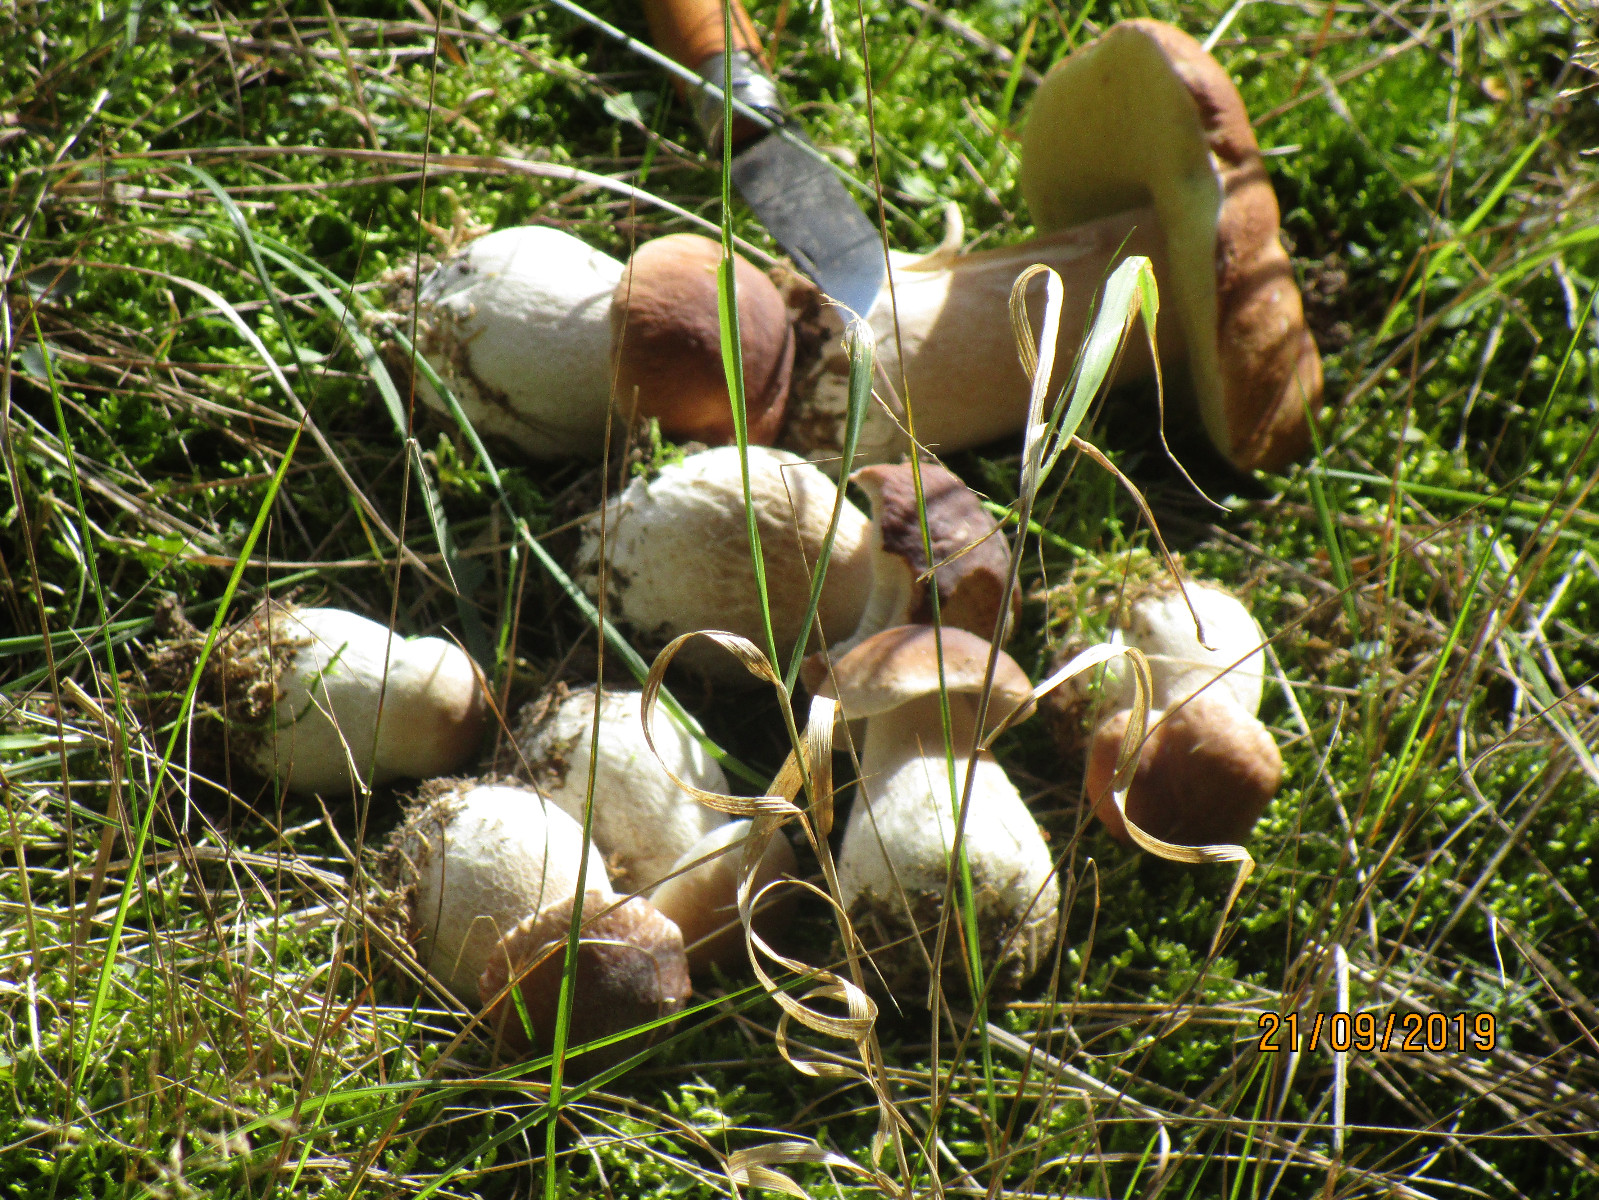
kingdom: Fungi
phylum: Basidiomycota
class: Agaricomycetes
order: Boletales
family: Boletaceae
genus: Boletus
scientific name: Boletus edulis
